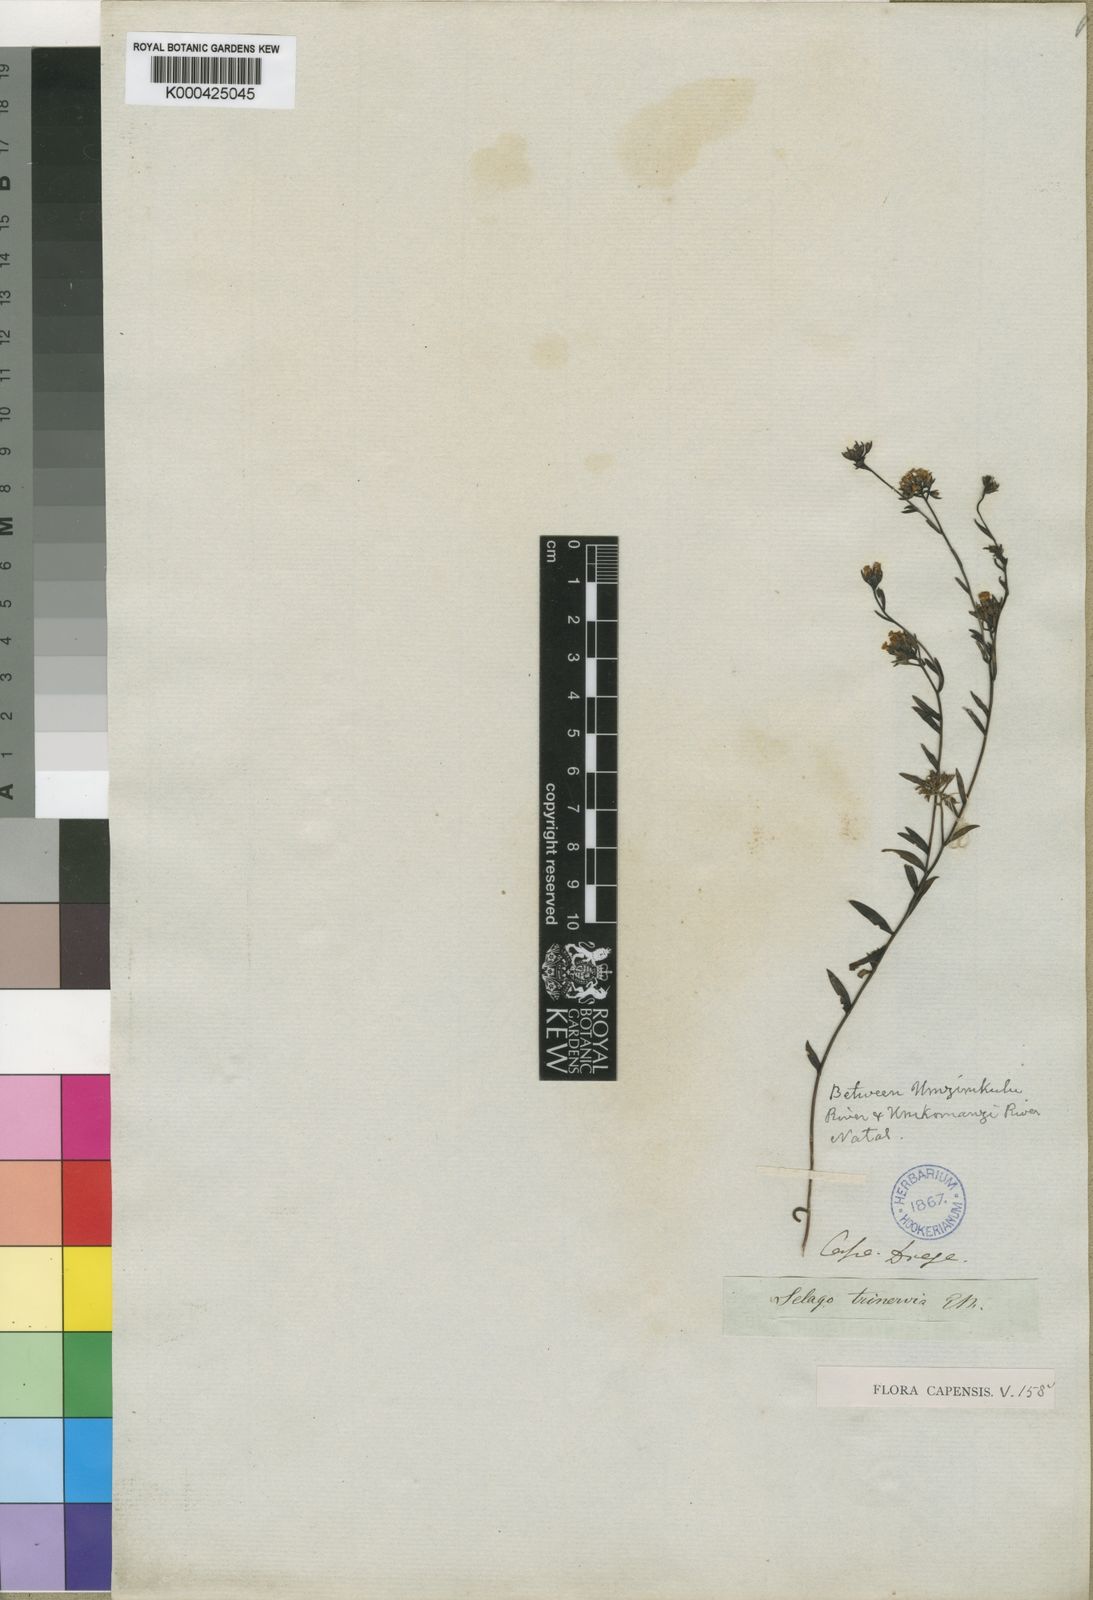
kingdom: Plantae
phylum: Tracheophyta
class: Magnoliopsida
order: Lamiales
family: Scrophulariaceae
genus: Selago
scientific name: Selago trinervia
